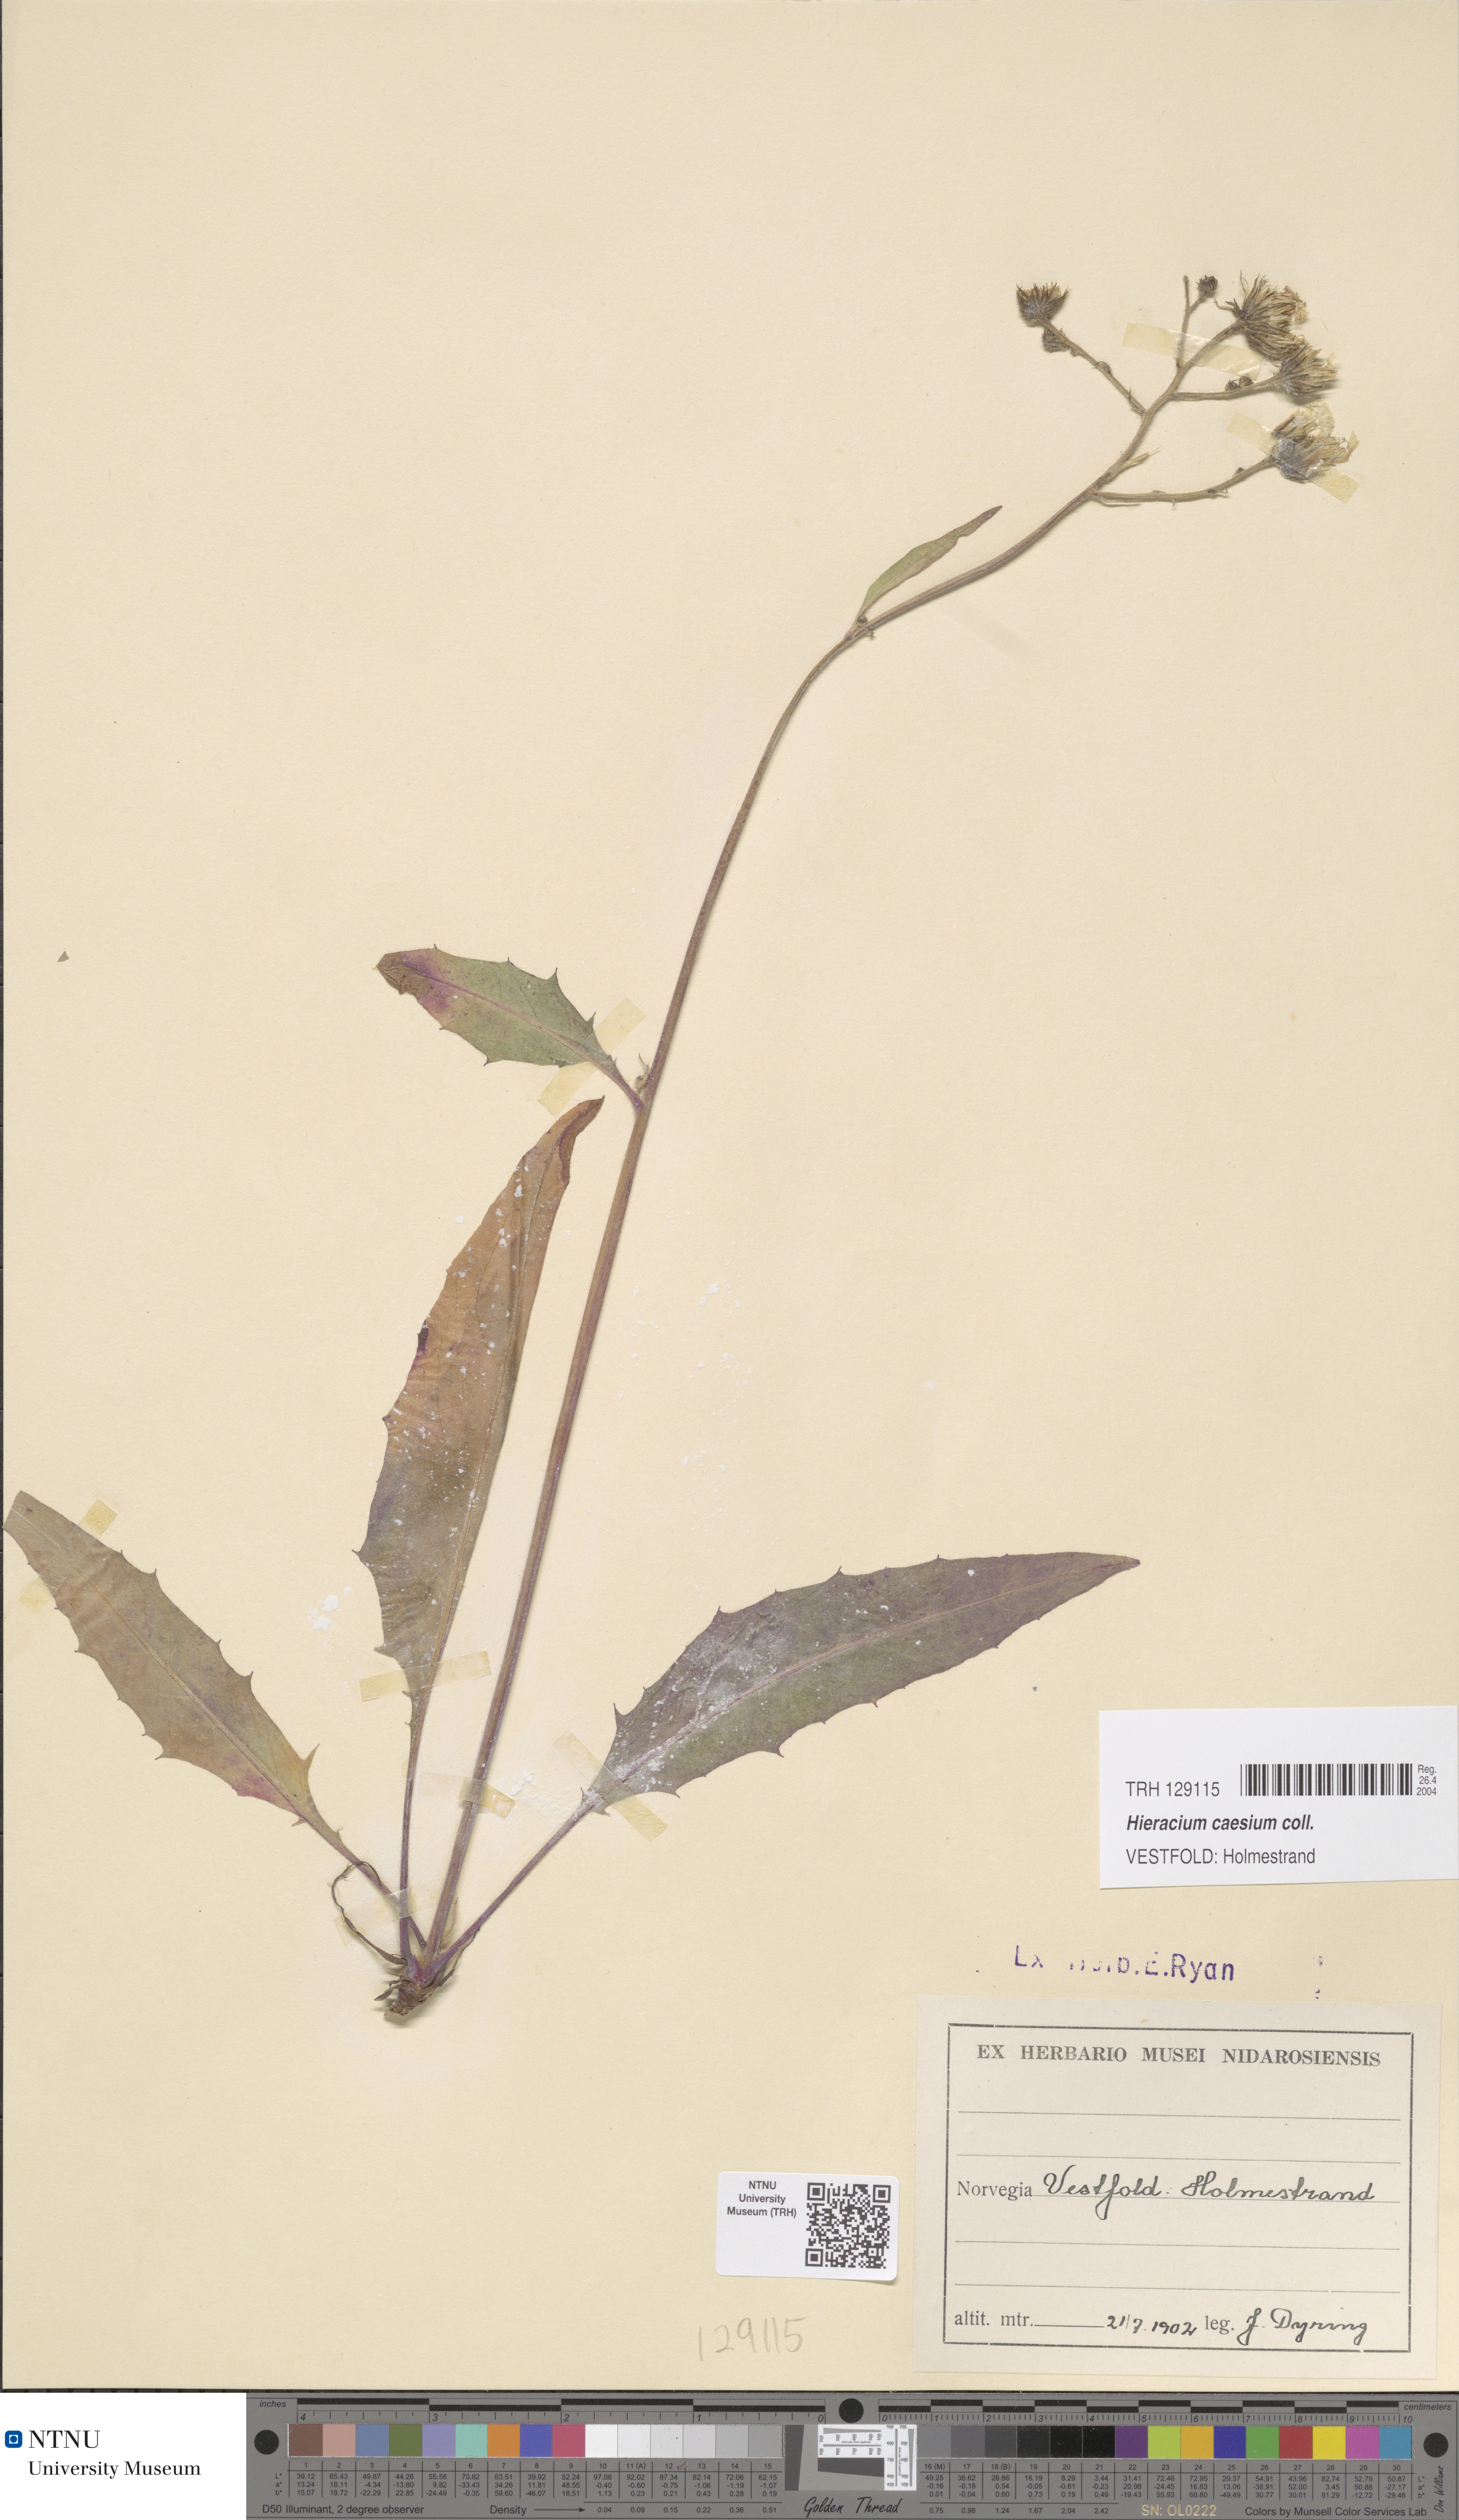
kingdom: Plantae
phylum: Tracheophyta
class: Magnoliopsida
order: Asterales
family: Asteraceae
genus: Hieracium
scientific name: Hieracium caesium
